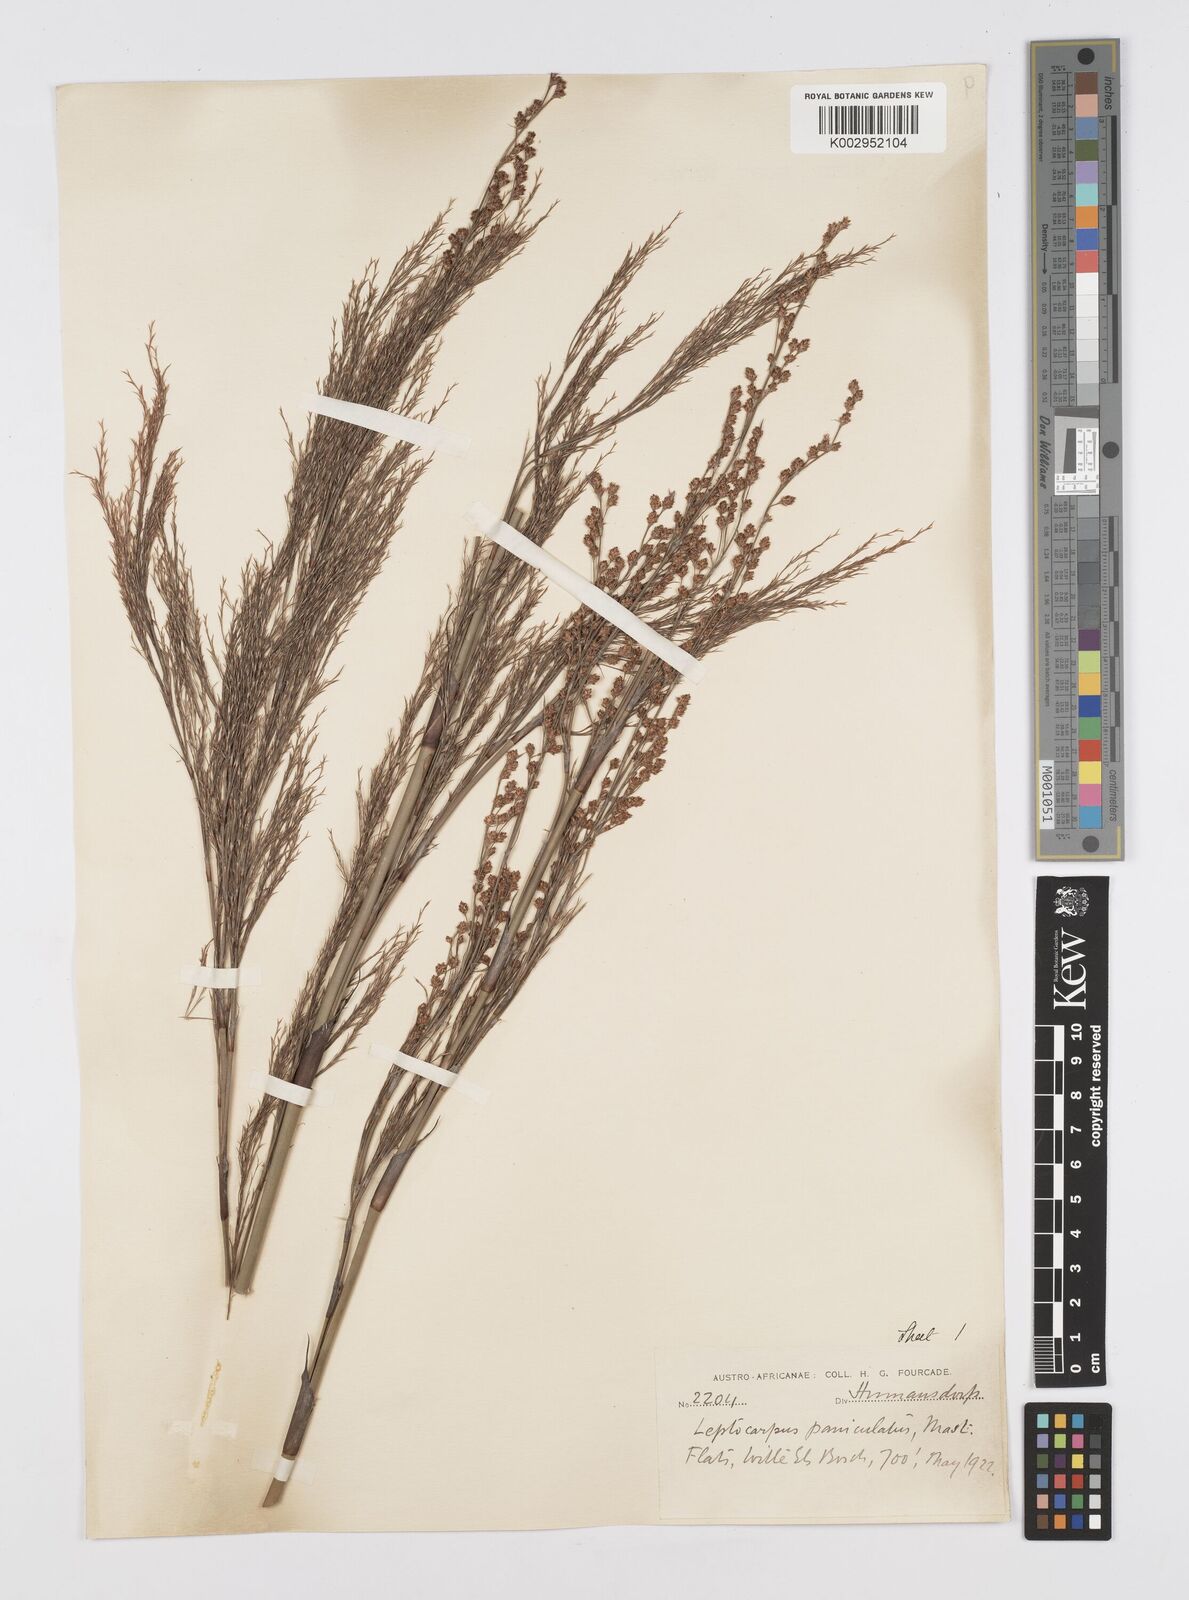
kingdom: Plantae
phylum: Tracheophyta
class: Liliopsida
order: Poales
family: Restionaceae
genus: Restio
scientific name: Restio paniculatus
